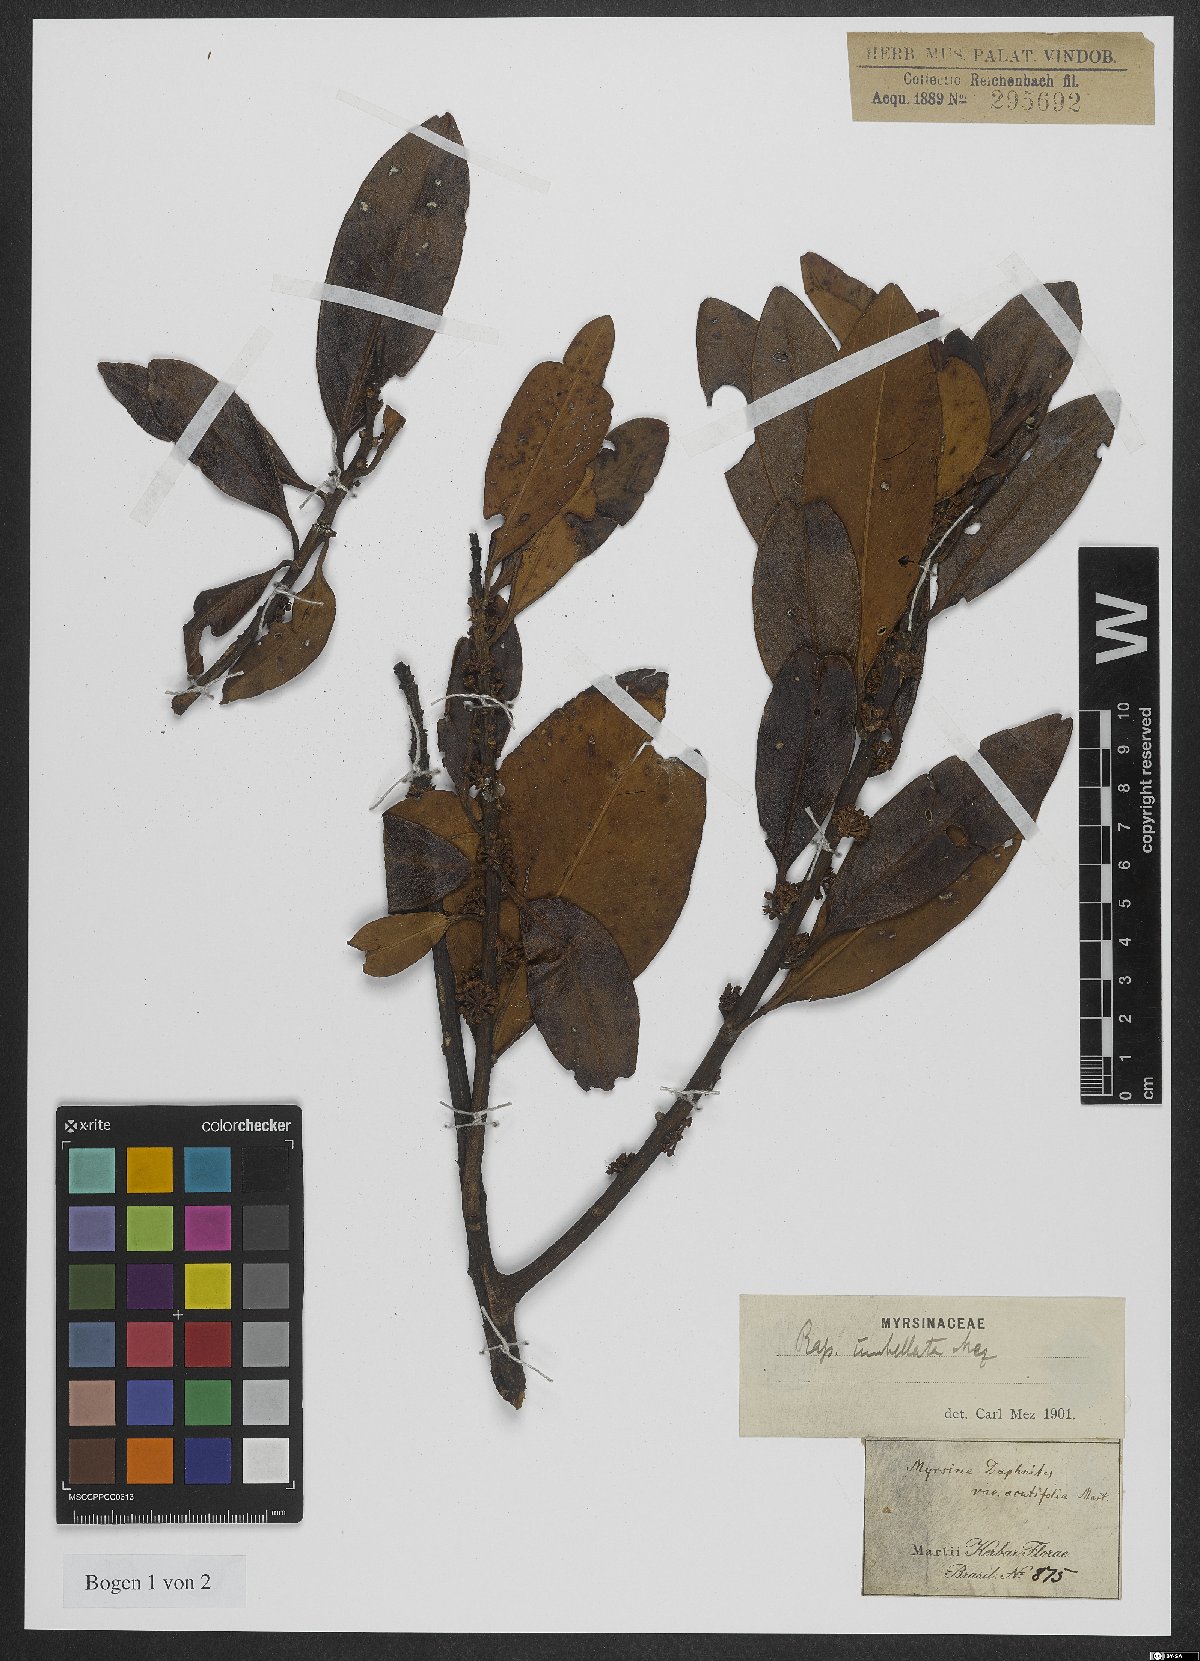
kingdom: Plantae
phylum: Tracheophyta
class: Magnoliopsida
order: Ericales
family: Primulaceae
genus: Myrsine
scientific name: Myrsine umbellata
